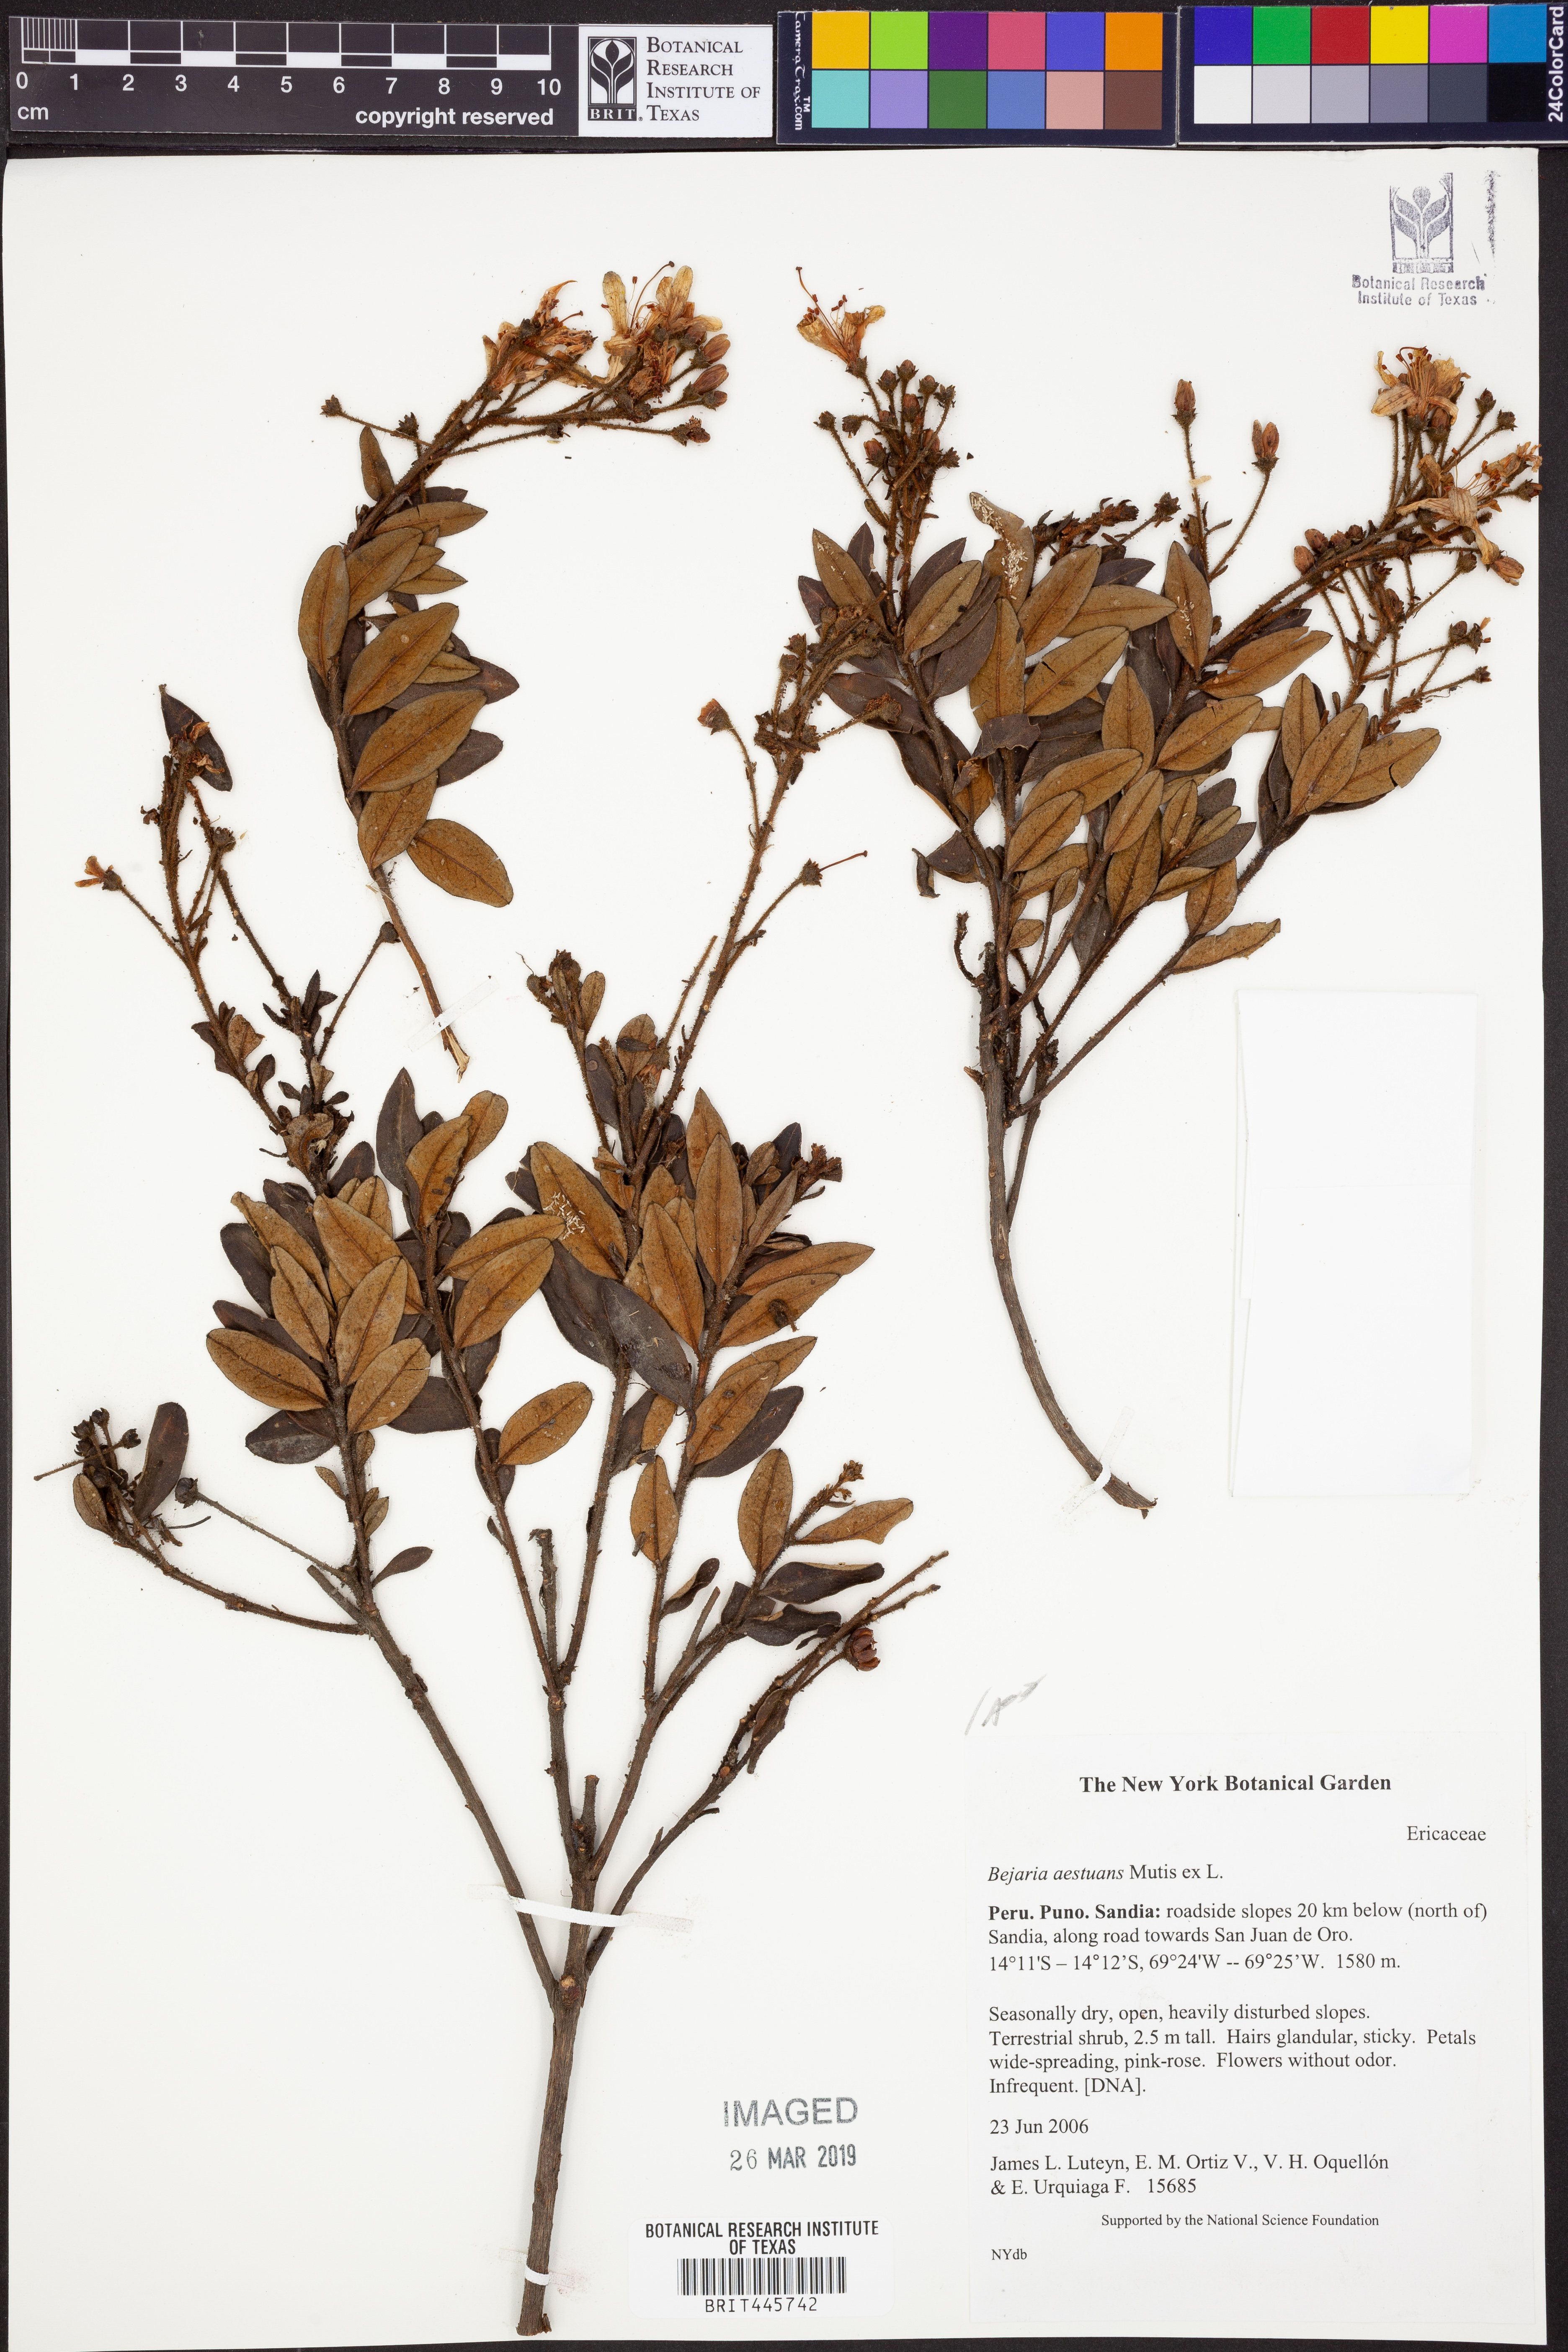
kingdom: Plantae
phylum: Tracheophyta
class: Magnoliopsida
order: Ericales
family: Ericaceae
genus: Bejaria
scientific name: Bejaria aestuans
